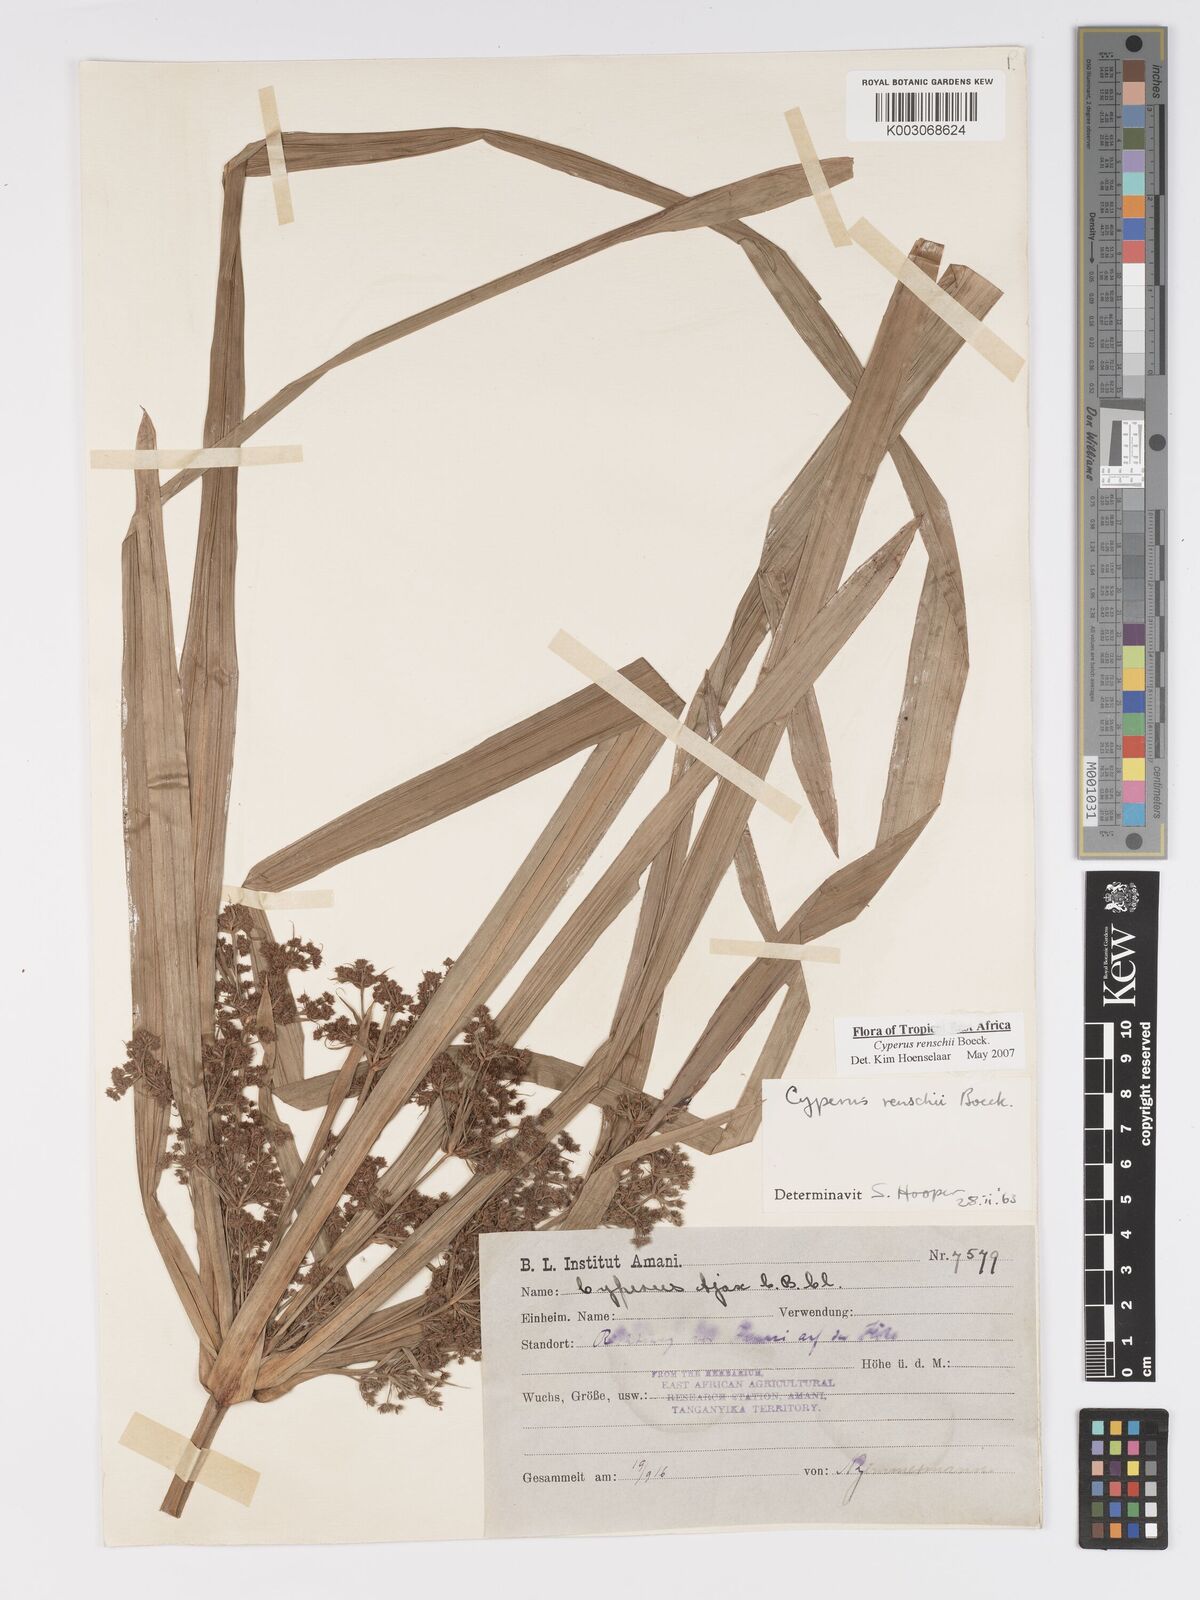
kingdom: Plantae
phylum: Tracheophyta
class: Liliopsida
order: Poales
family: Cyperaceae
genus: Cyperus
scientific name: Cyperus renschii
